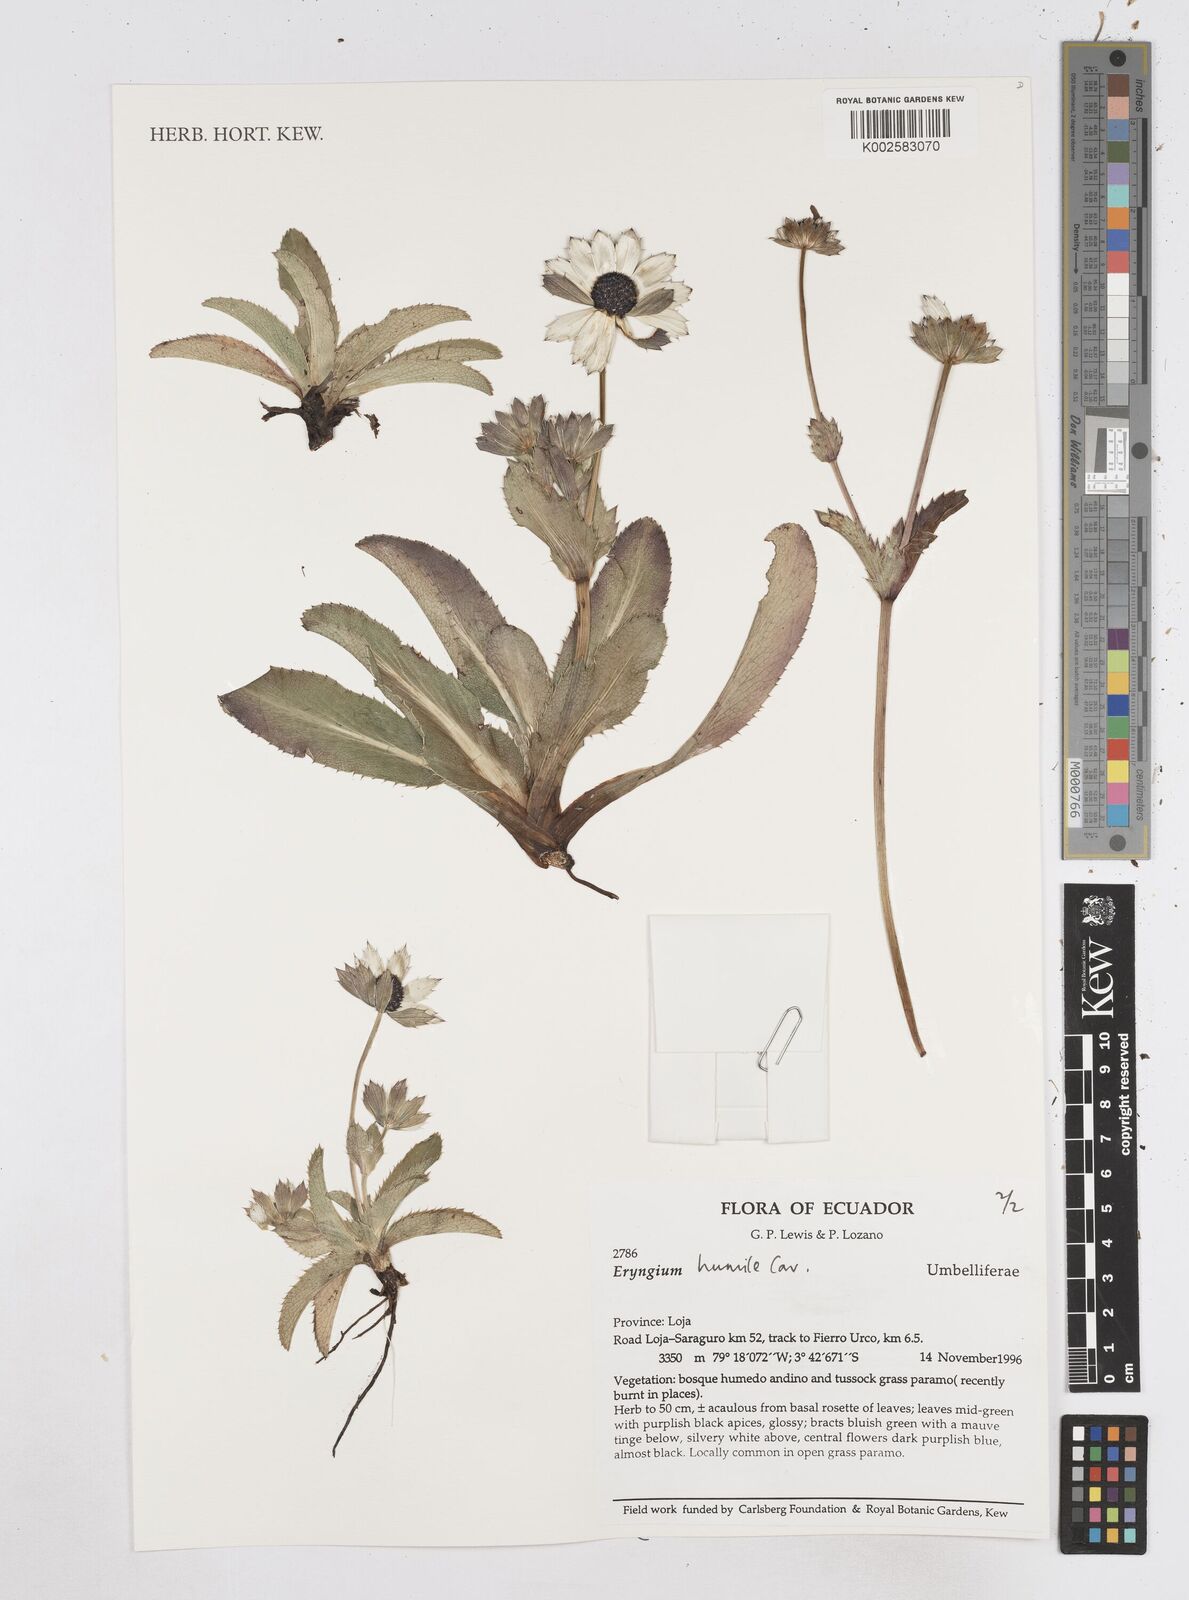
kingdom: Plantae
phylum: Tracheophyta
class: Magnoliopsida
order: Apiales
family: Apiaceae
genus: Eryngium
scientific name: Eryngium humile
